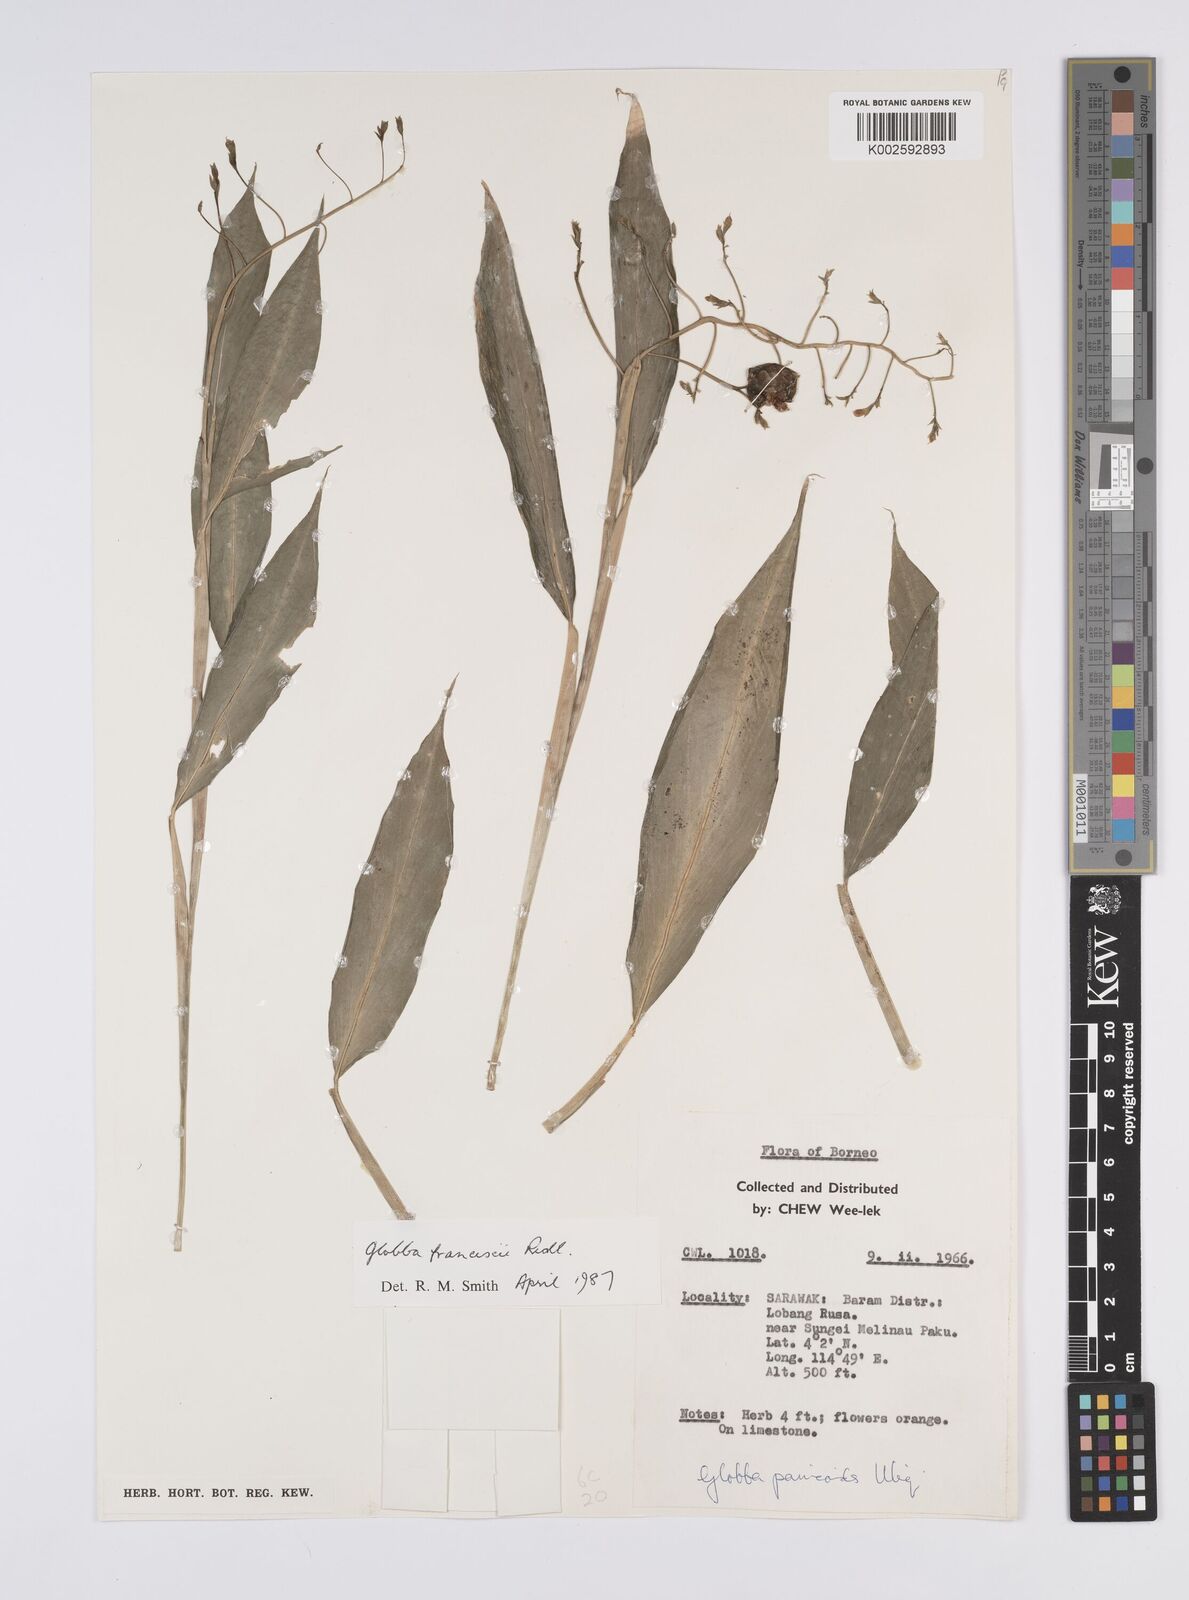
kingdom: Plantae
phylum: Tracheophyta
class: Liliopsida
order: Zingiberales
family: Zingiberaceae
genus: Globba
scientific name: Globba francisci
